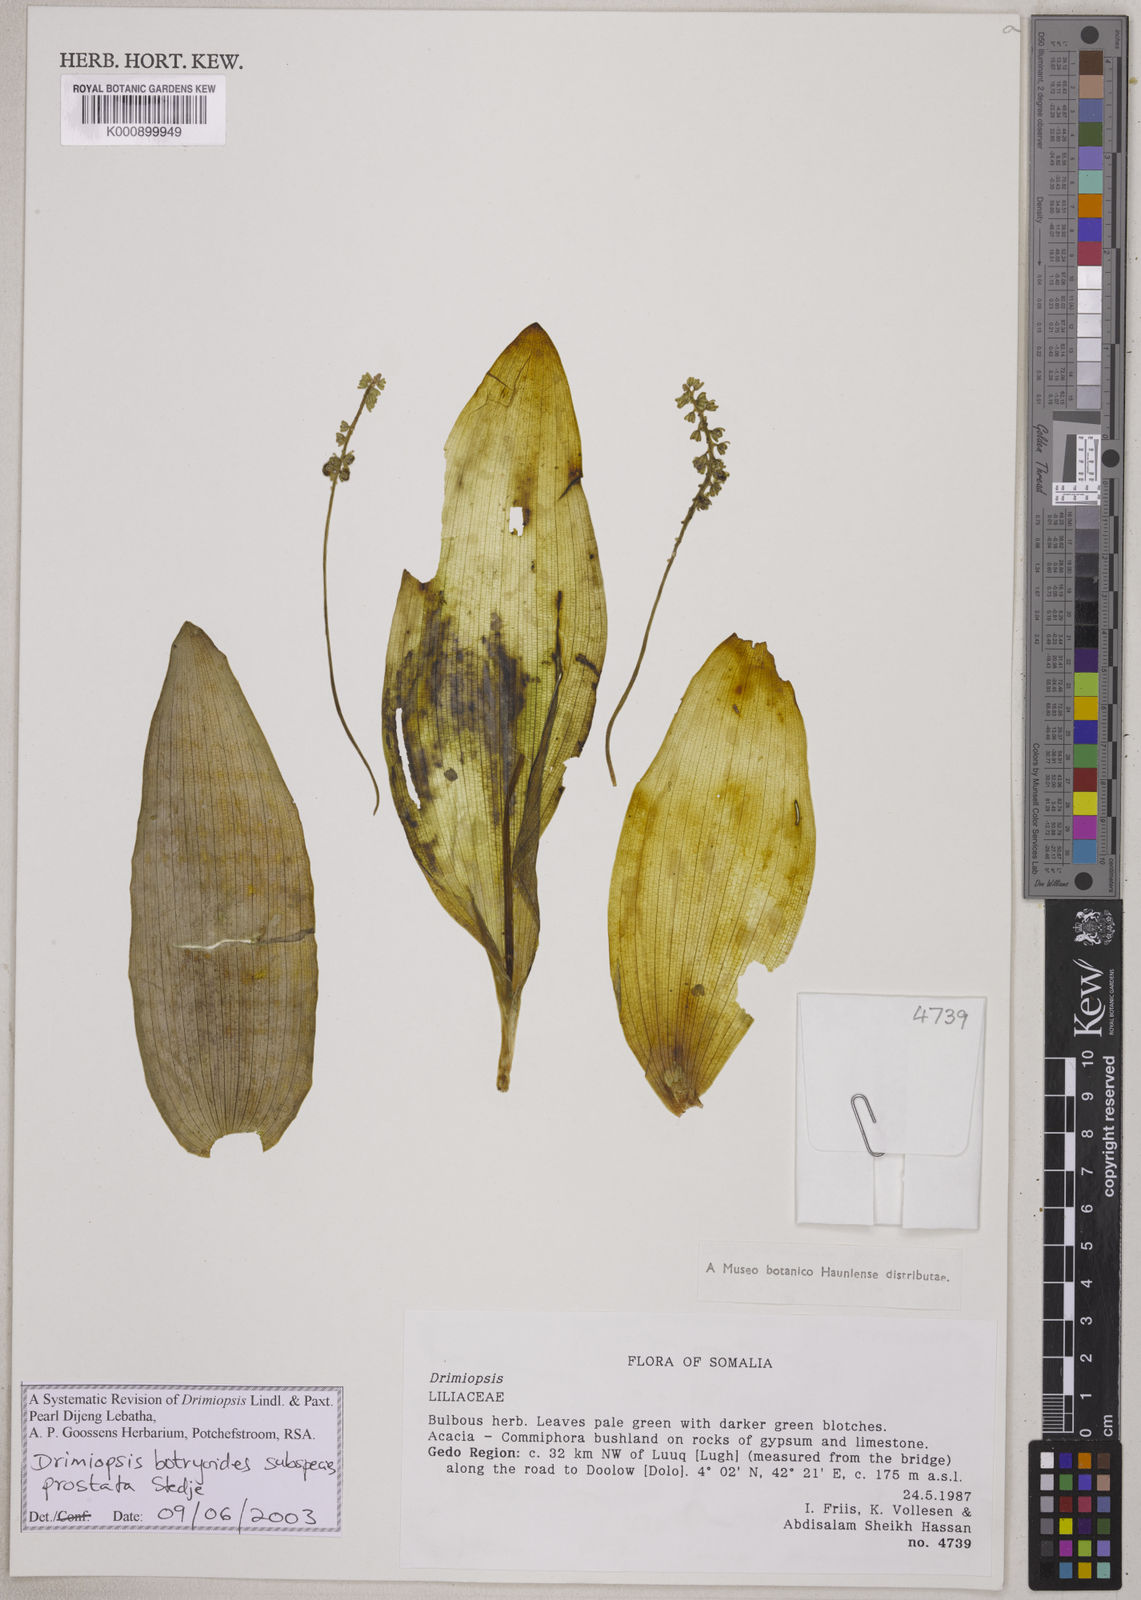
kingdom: Plantae
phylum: Tracheophyta
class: Liliopsida
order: Asparagales
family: Asparagaceae
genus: Drimiopsis
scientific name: Drimiopsis botryoides
